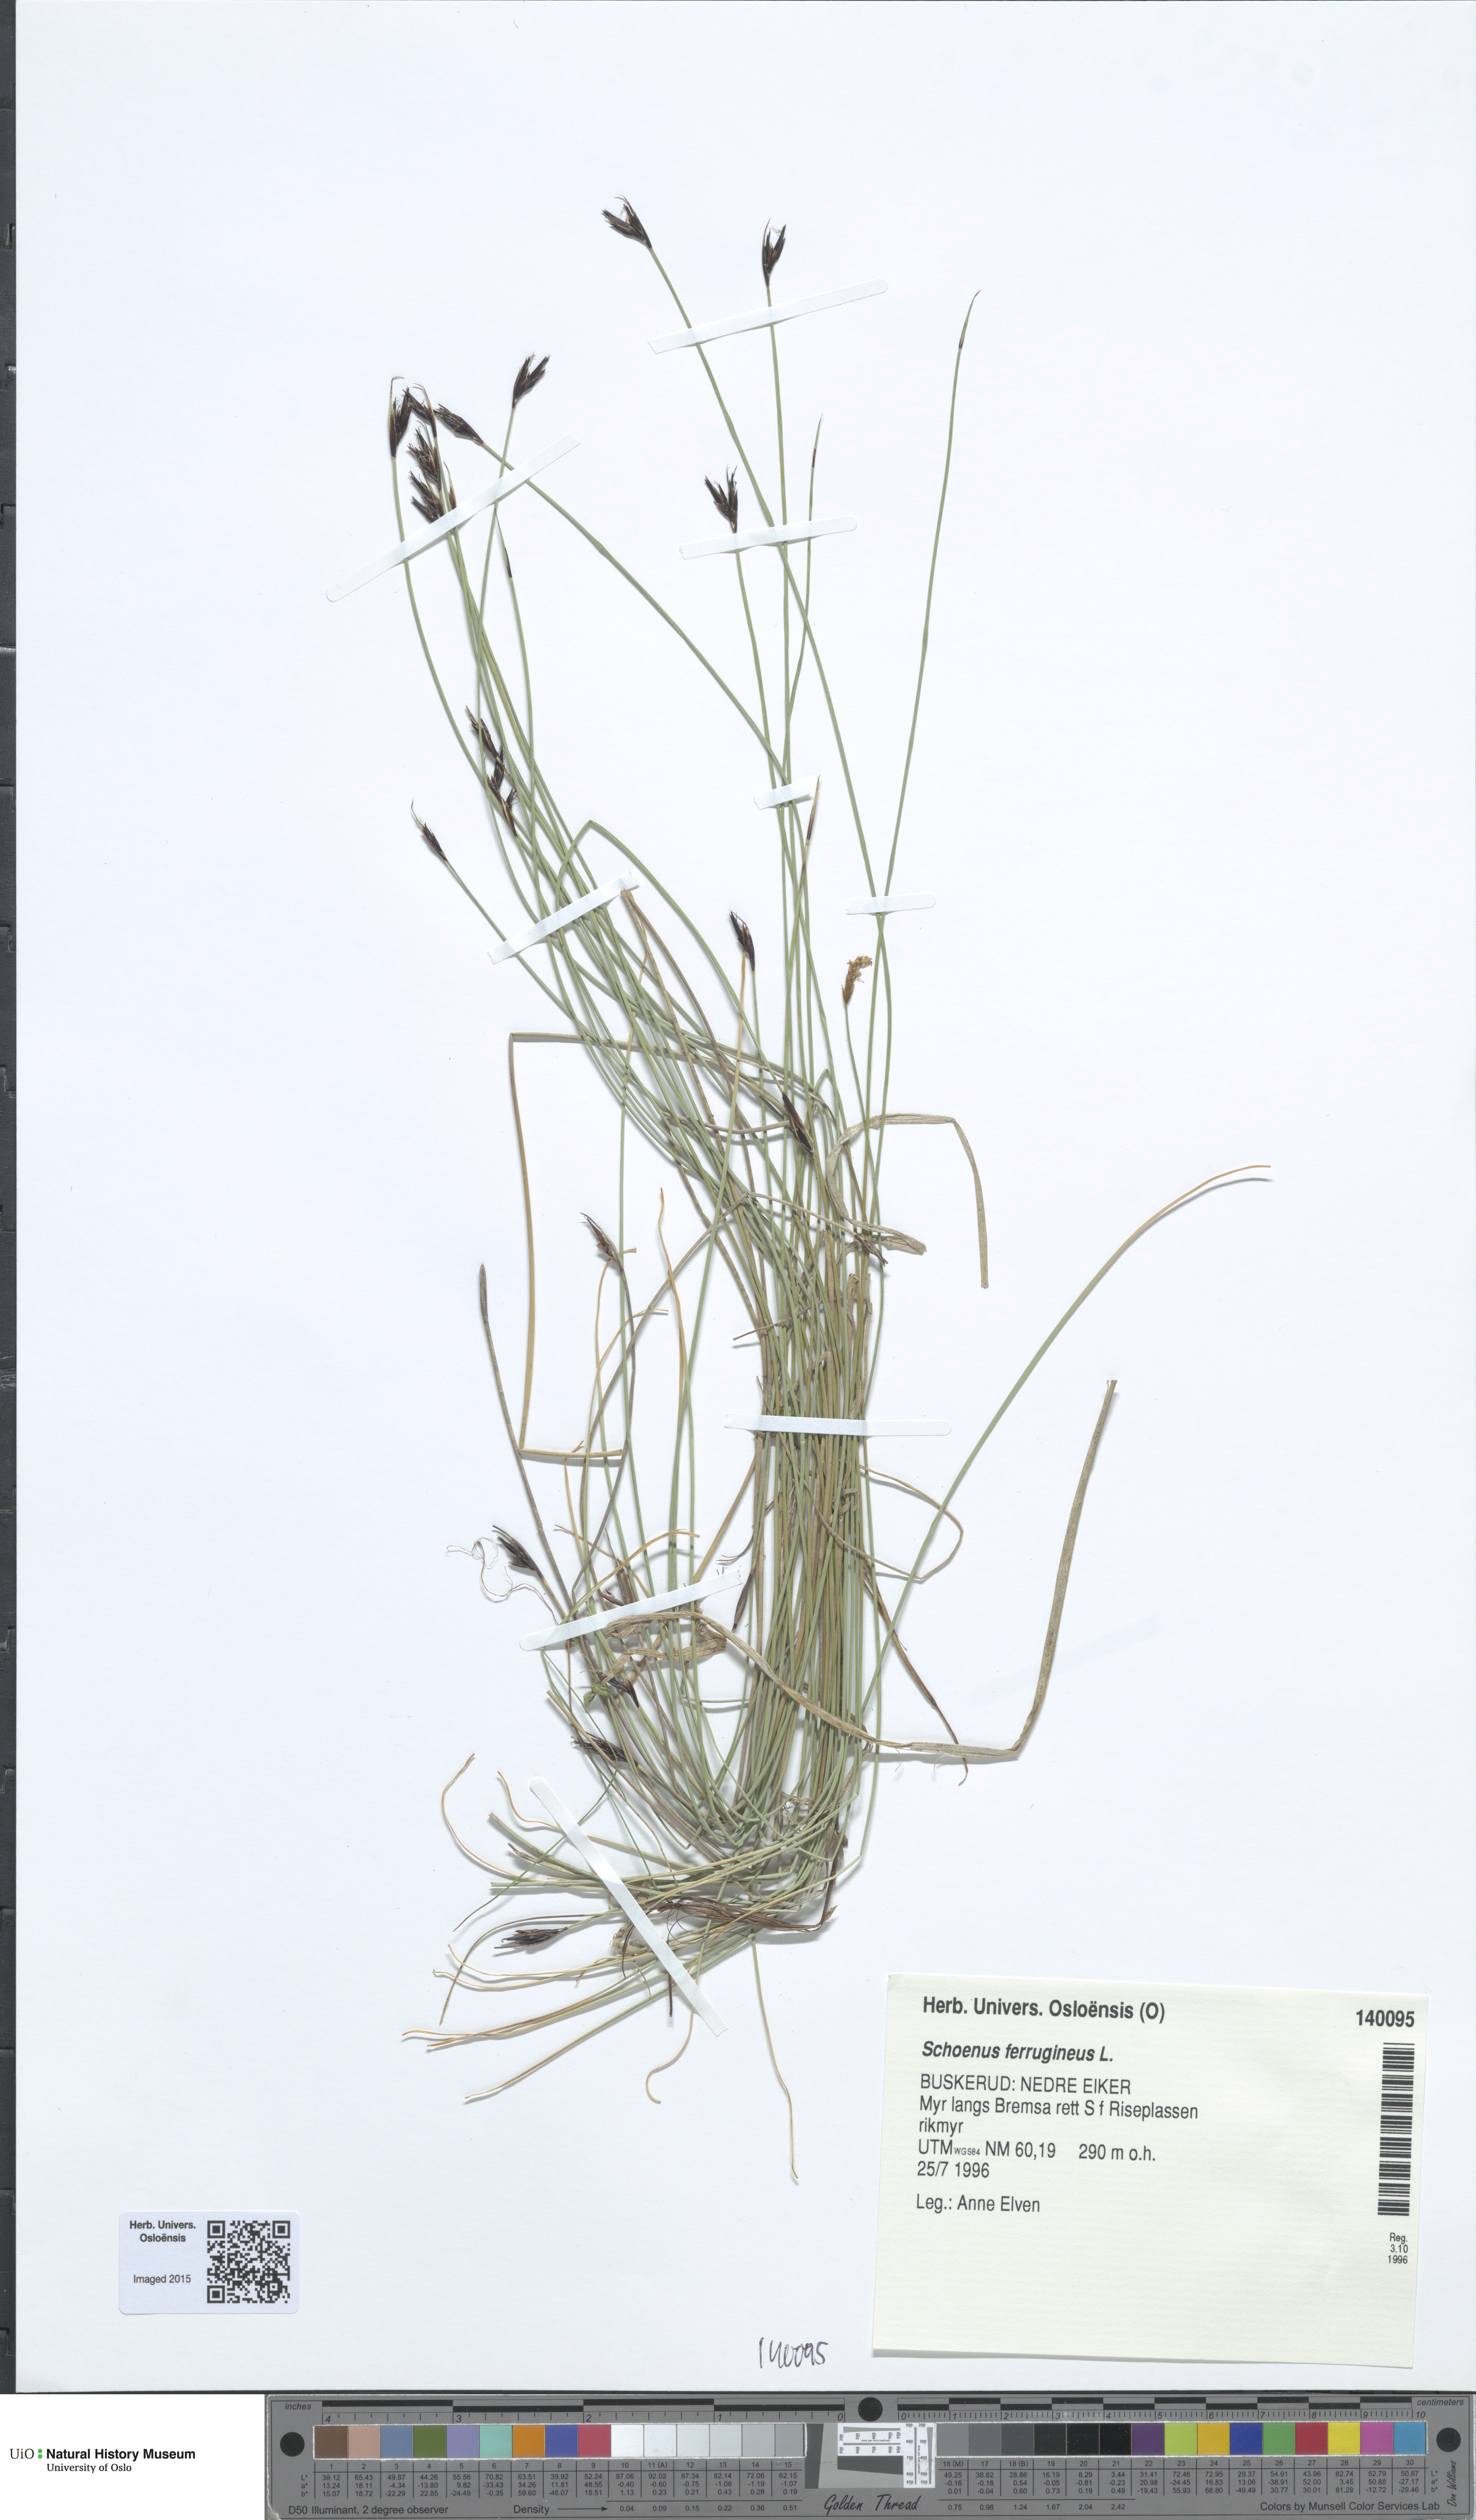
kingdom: Plantae
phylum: Tracheophyta
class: Liliopsida
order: Poales
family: Cyperaceae
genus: Schoenus
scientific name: Schoenus ferrugineus
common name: Brown bog-rush
